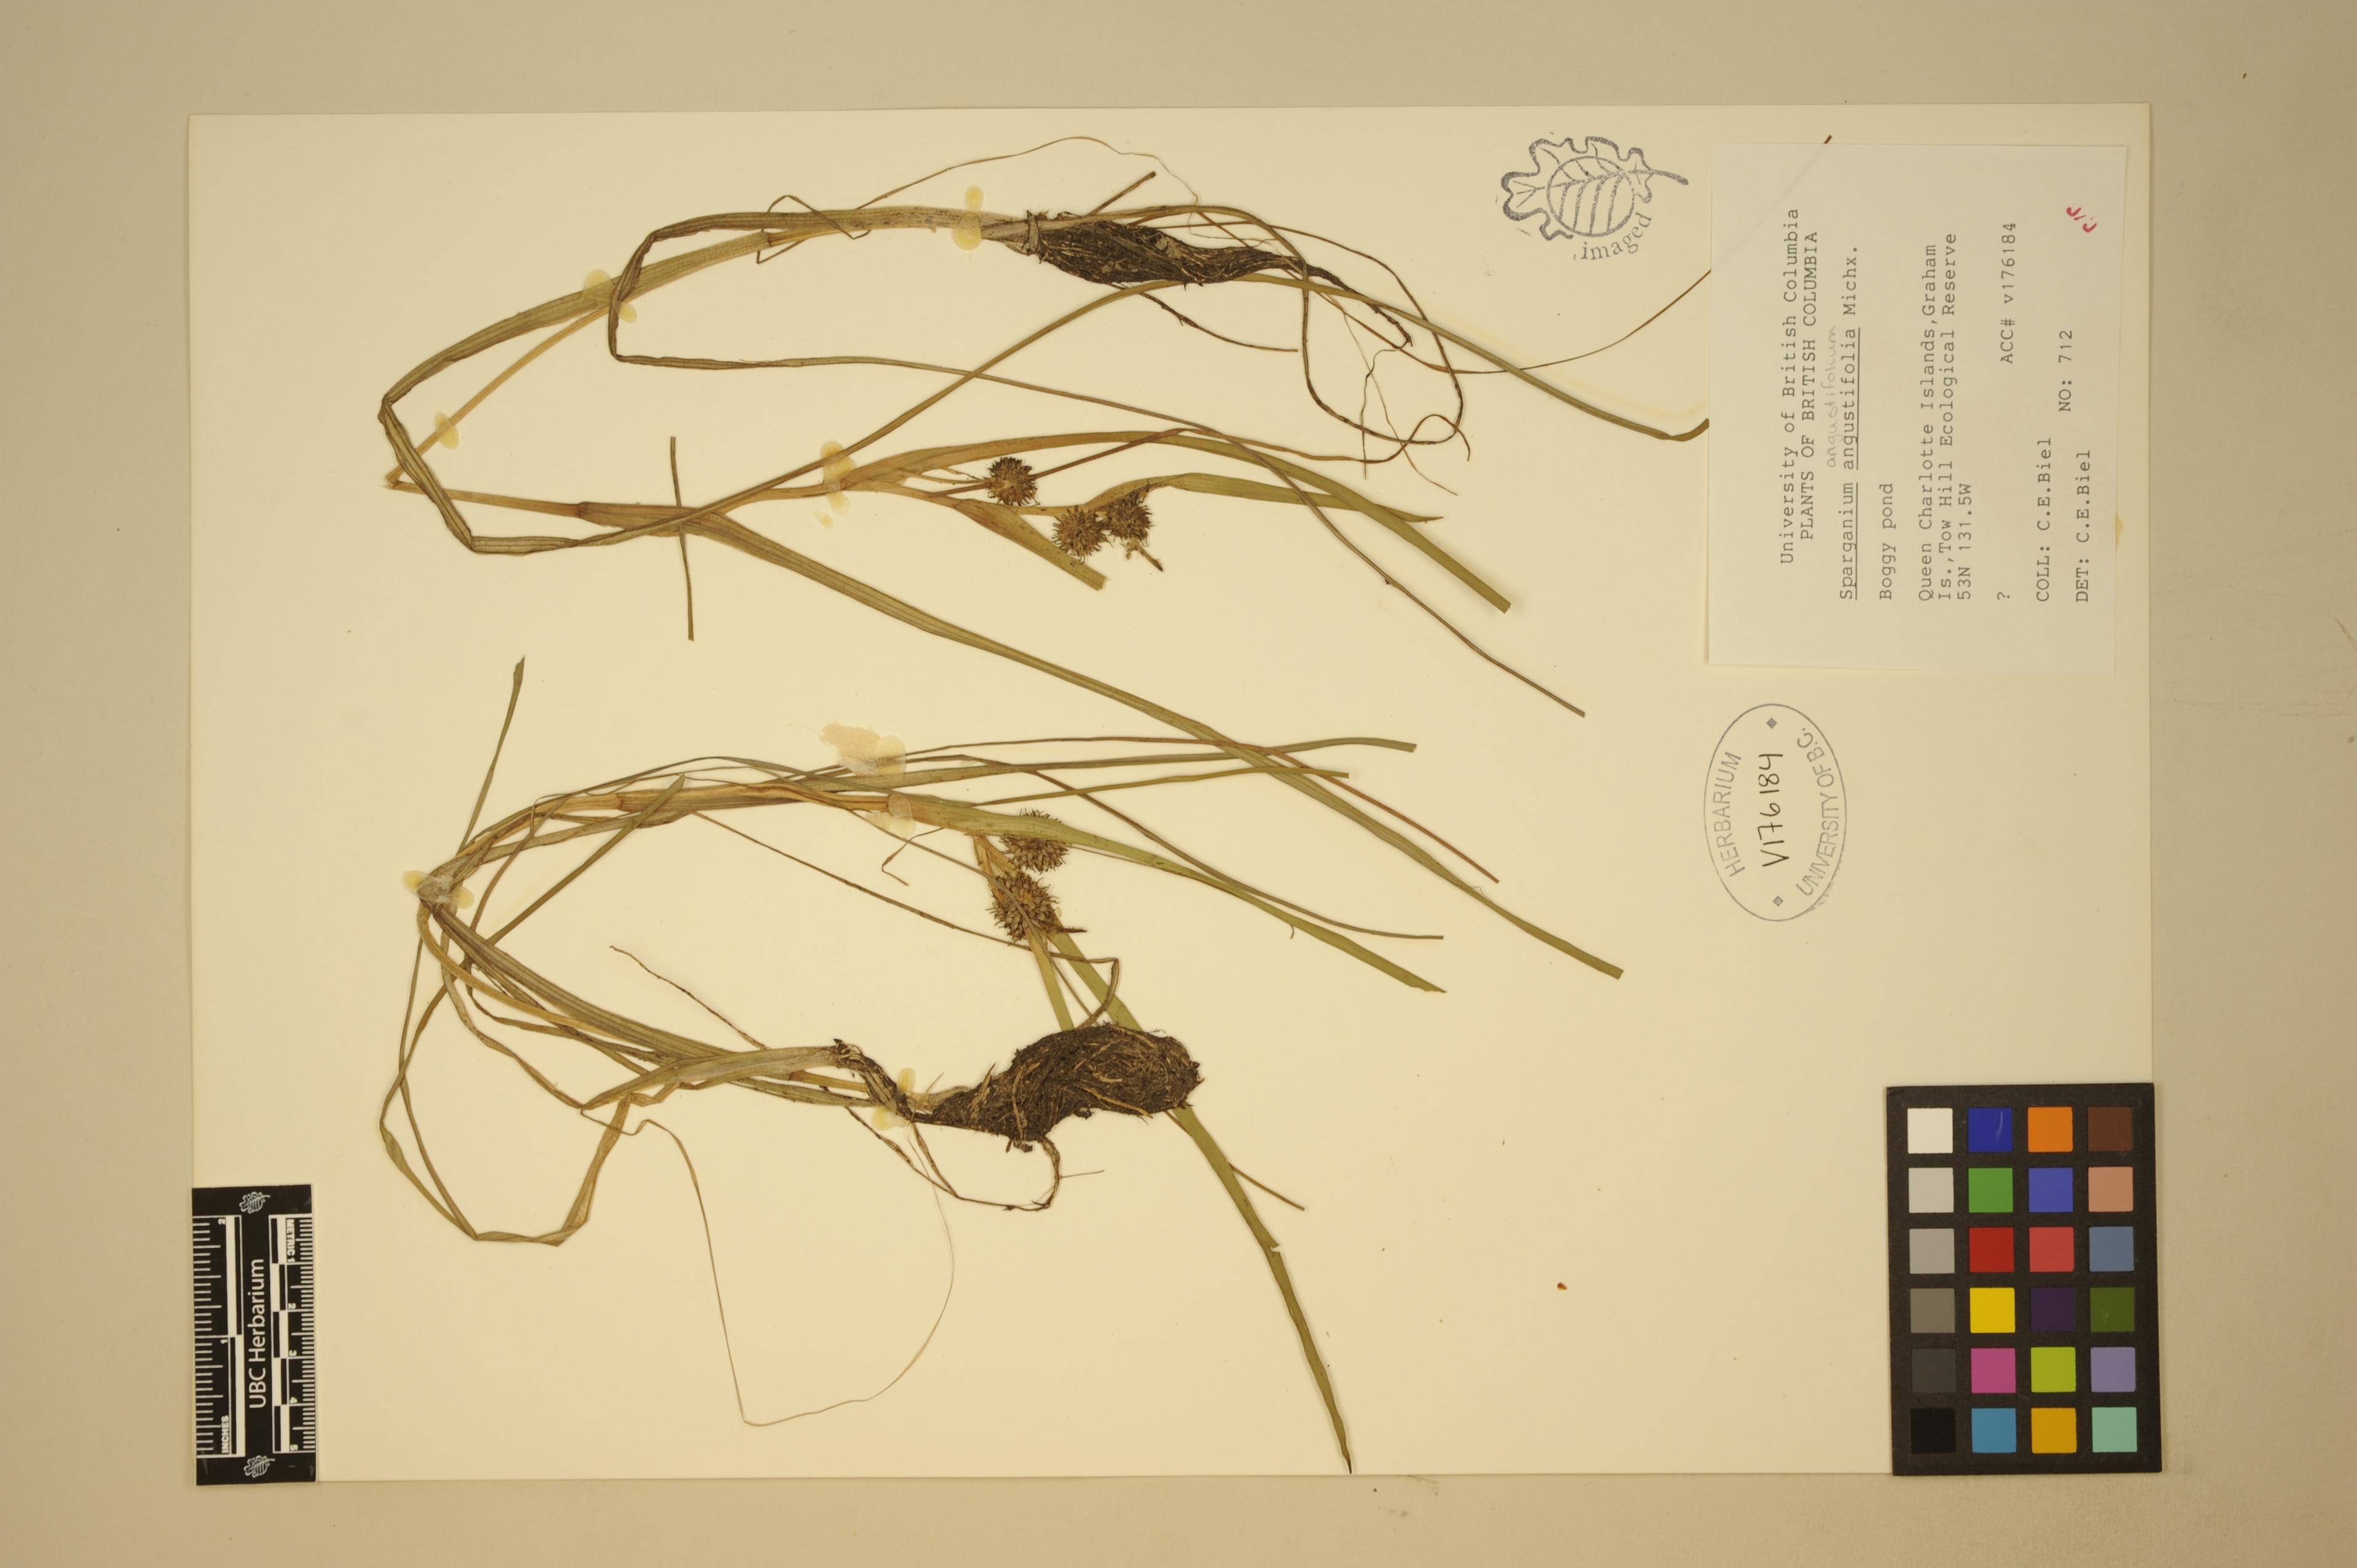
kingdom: Plantae
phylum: Tracheophyta
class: Liliopsida
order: Poales
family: Typhaceae
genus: Sparganium
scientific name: Sparganium angustifolium
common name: Floating bur-reed
